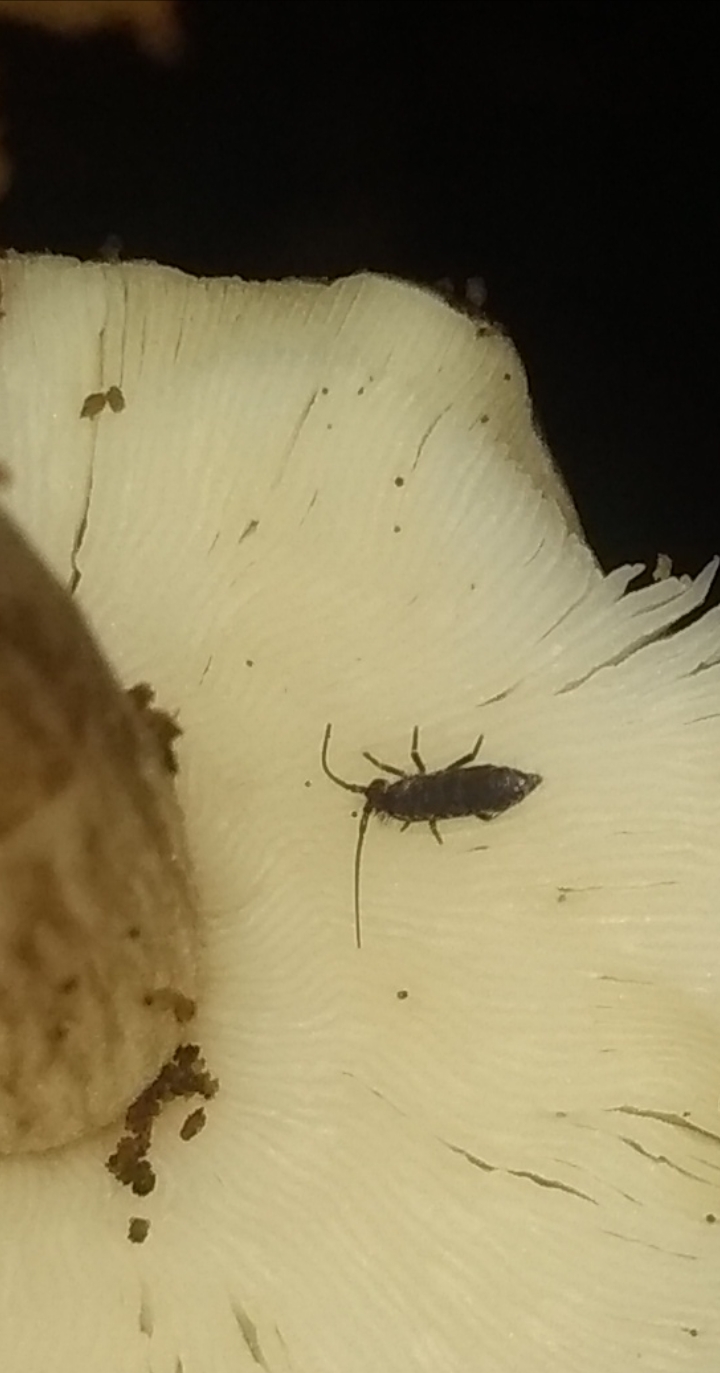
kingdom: Fungi
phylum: Basidiomycota
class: Agaricomycetes
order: Agaricales
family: Pluteaceae
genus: Pluteus
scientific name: Pluteus cervinus
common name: sodfarvet skærmhat
